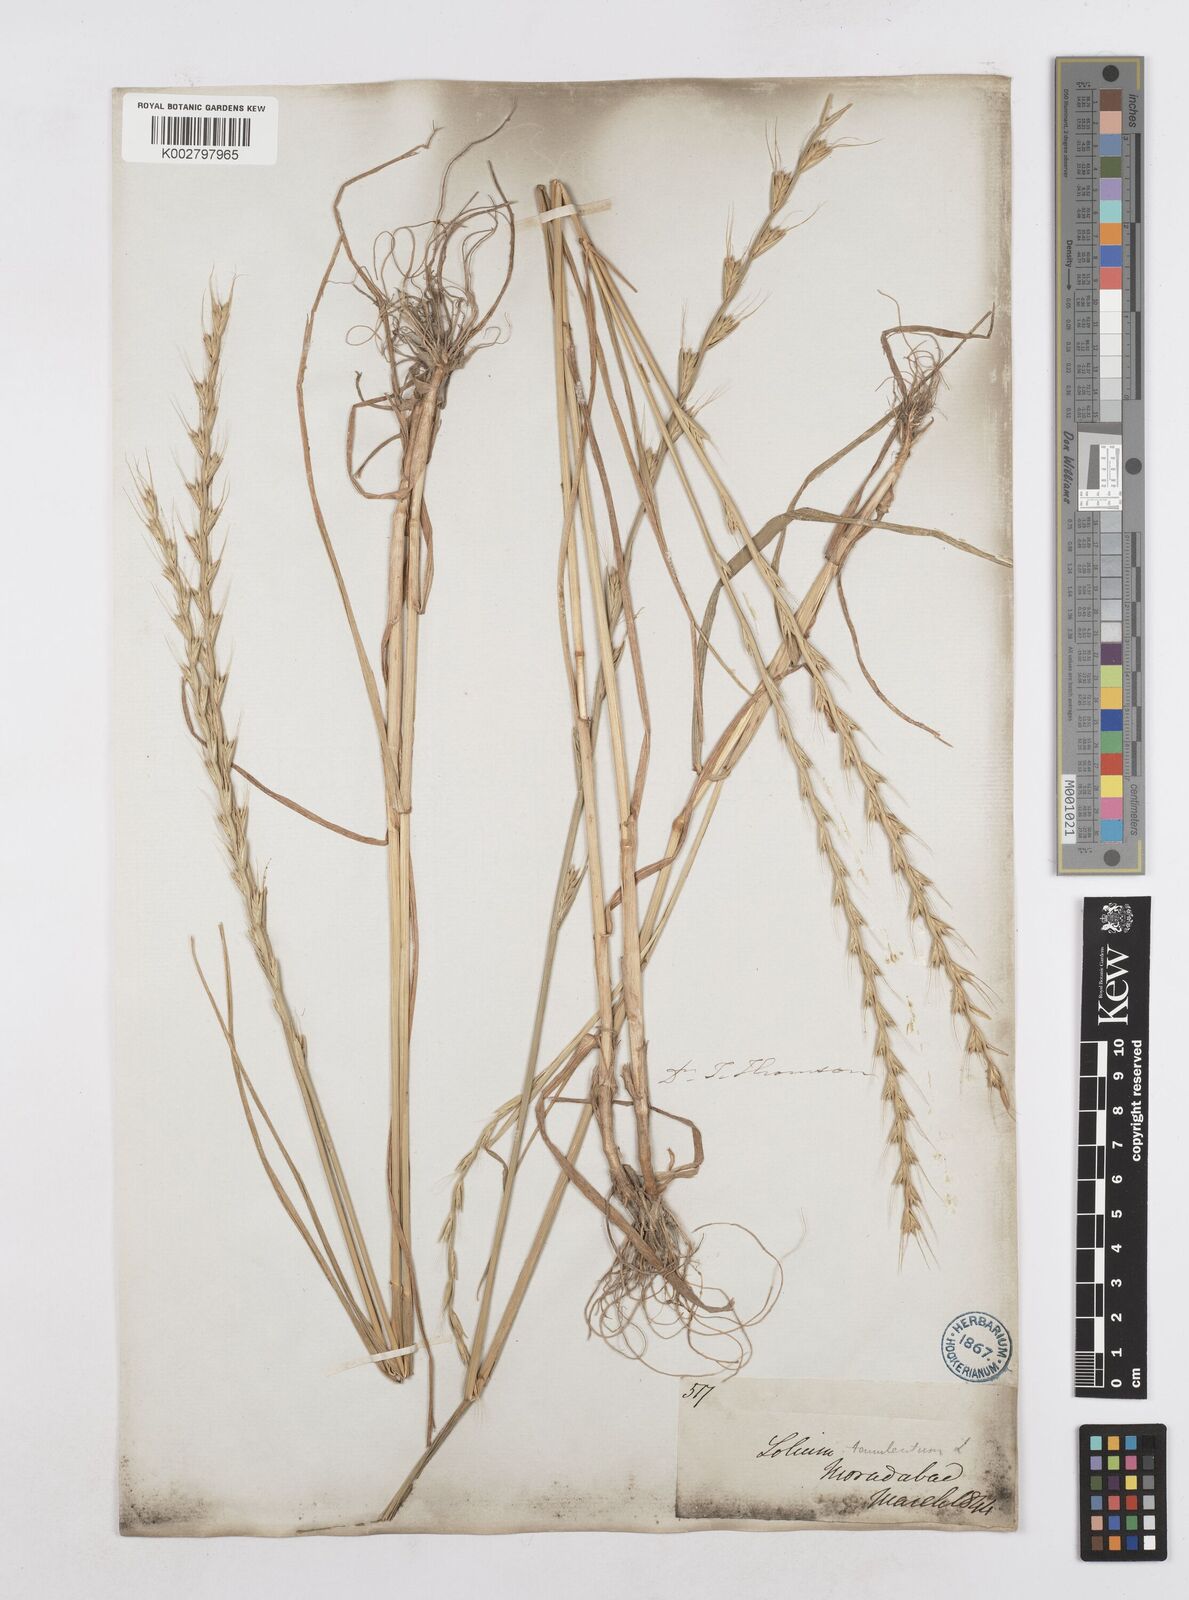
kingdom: Plantae
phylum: Tracheophyta
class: Liliopsida
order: Poales
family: Poaceae
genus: Lolium
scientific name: Lolium temulentum
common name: Darnel
